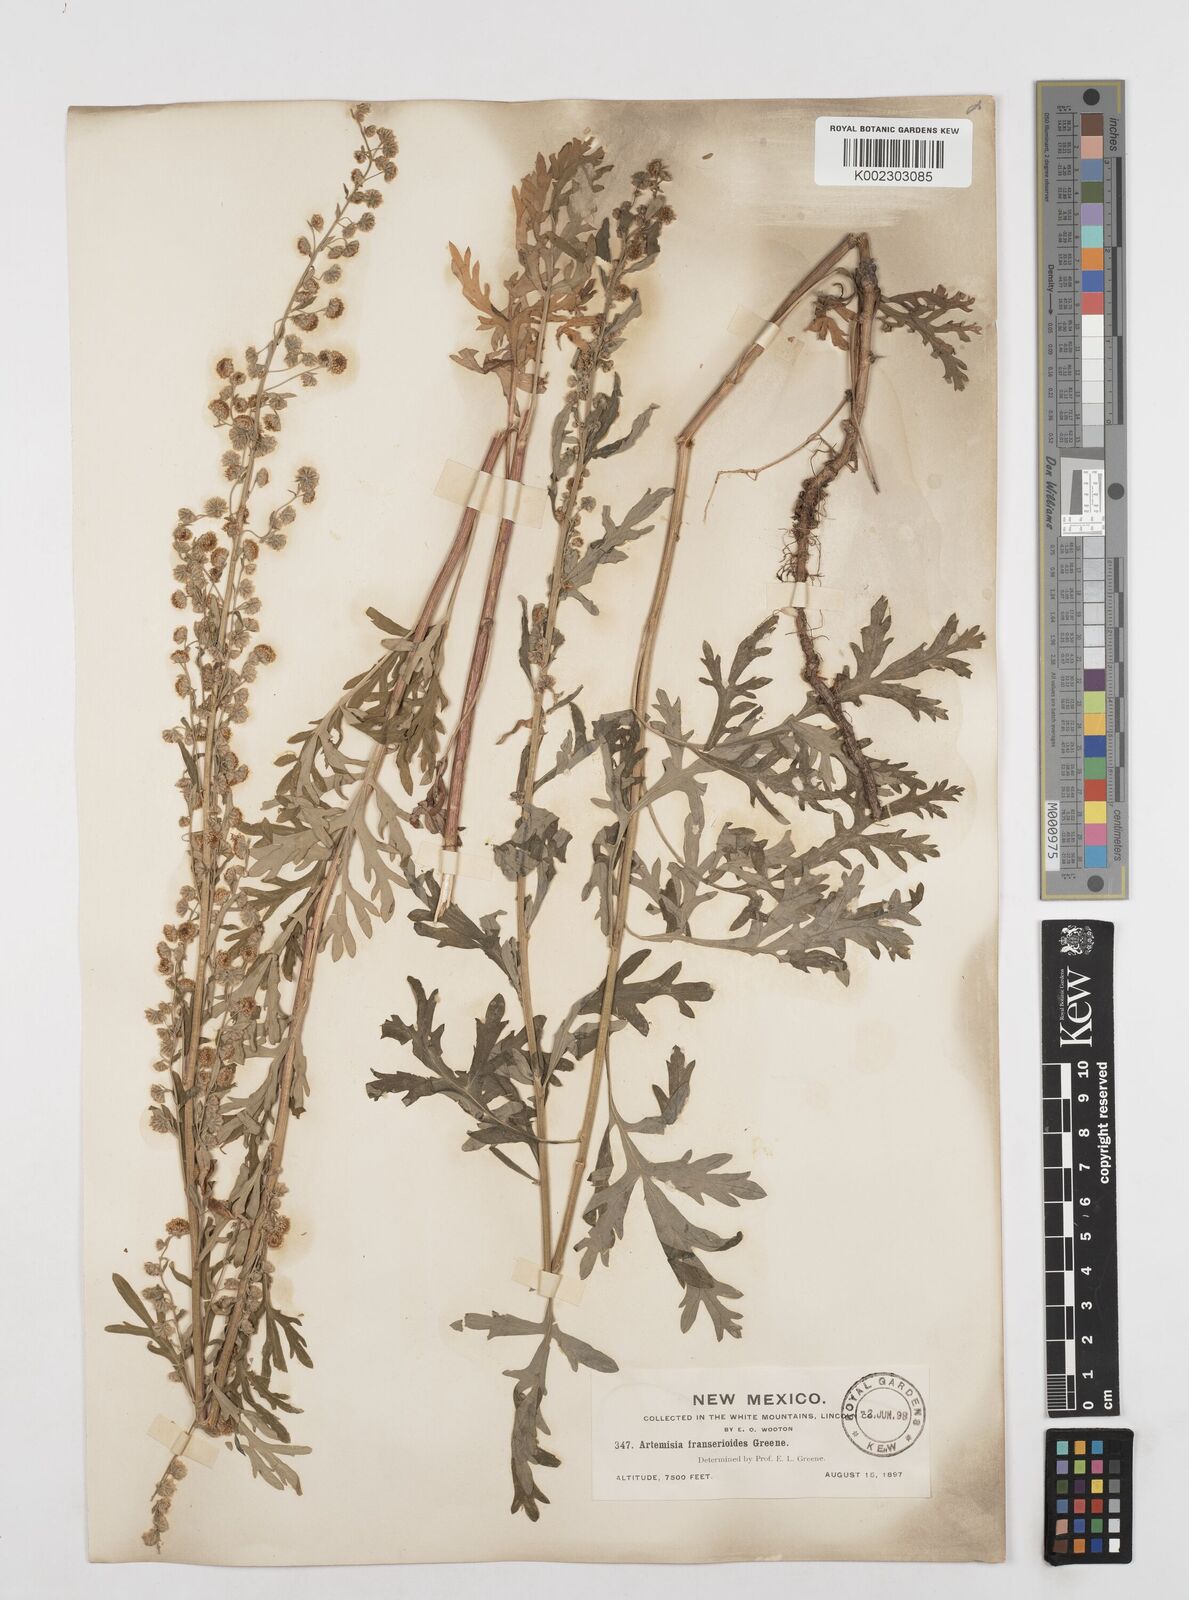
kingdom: Plantae
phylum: Tracheophyta
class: Magnoliopsida
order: Asterales
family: Asteraceae
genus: Artemisia
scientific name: Artemisia vulgaris
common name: Mugwort
